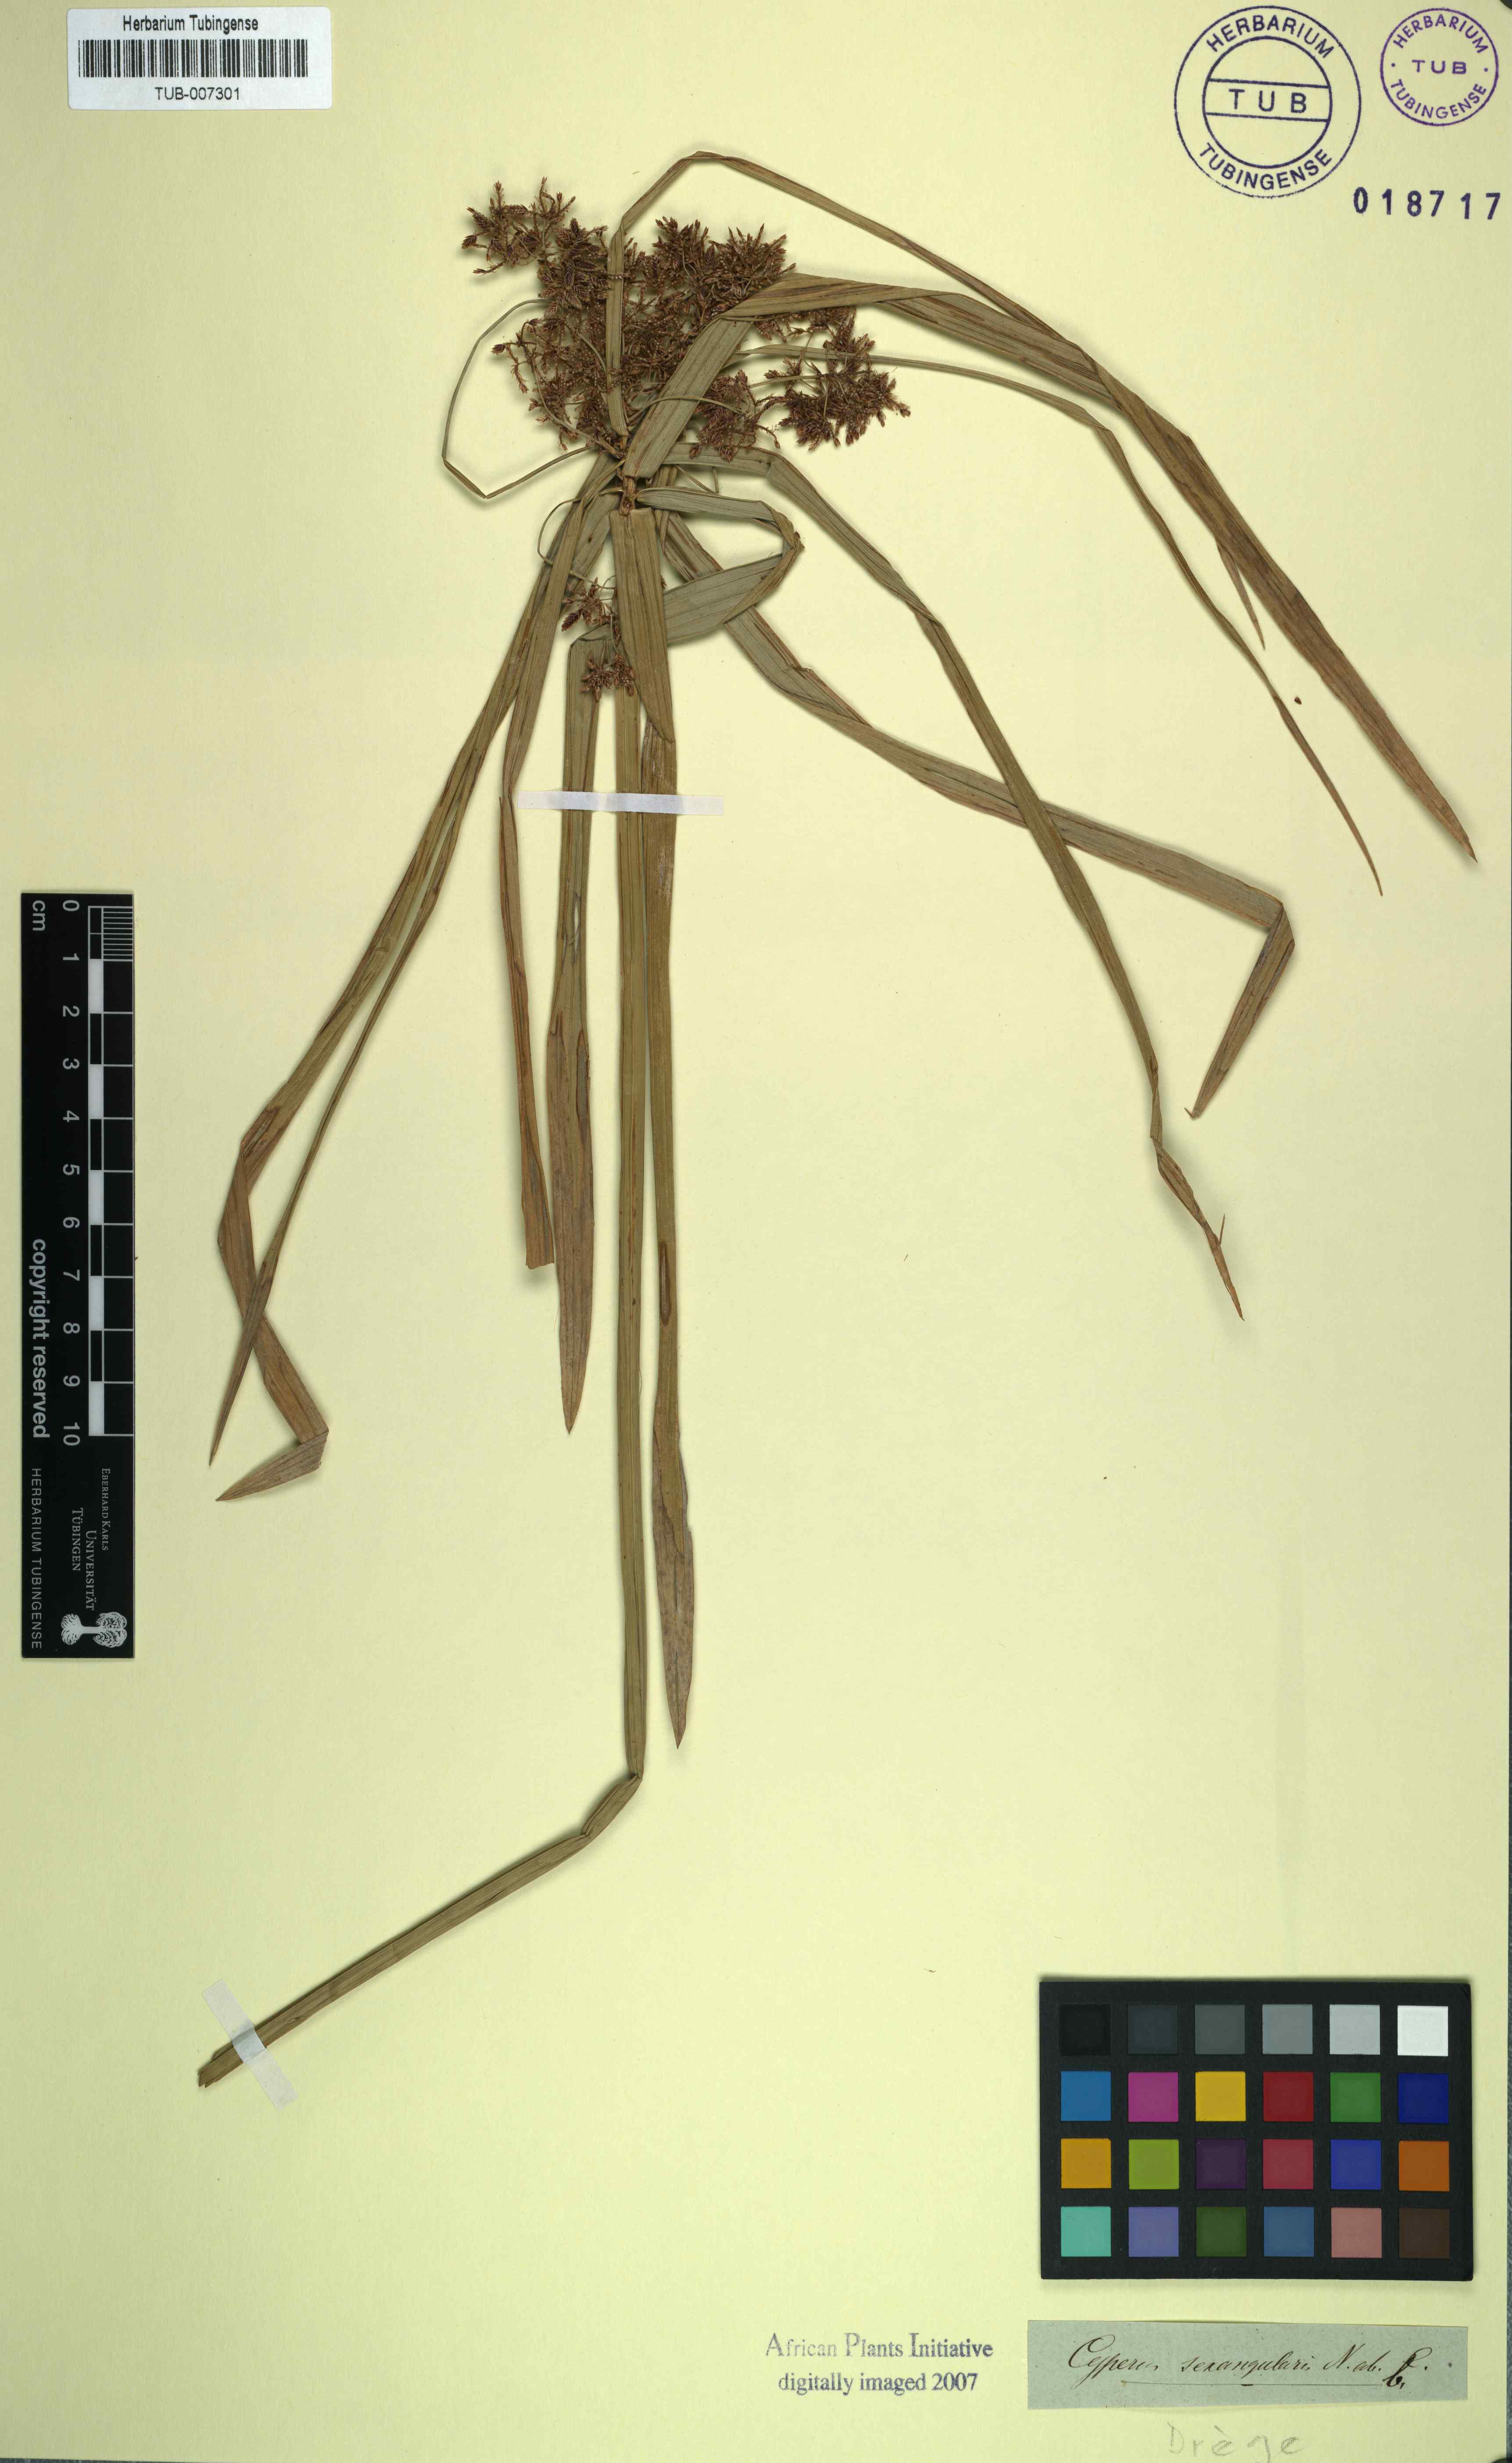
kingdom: Plantae
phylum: Tracheophyta
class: Liliopsida
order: Poales
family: Cyperaceae
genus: Cyperus
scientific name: Cyperus sexangularis
